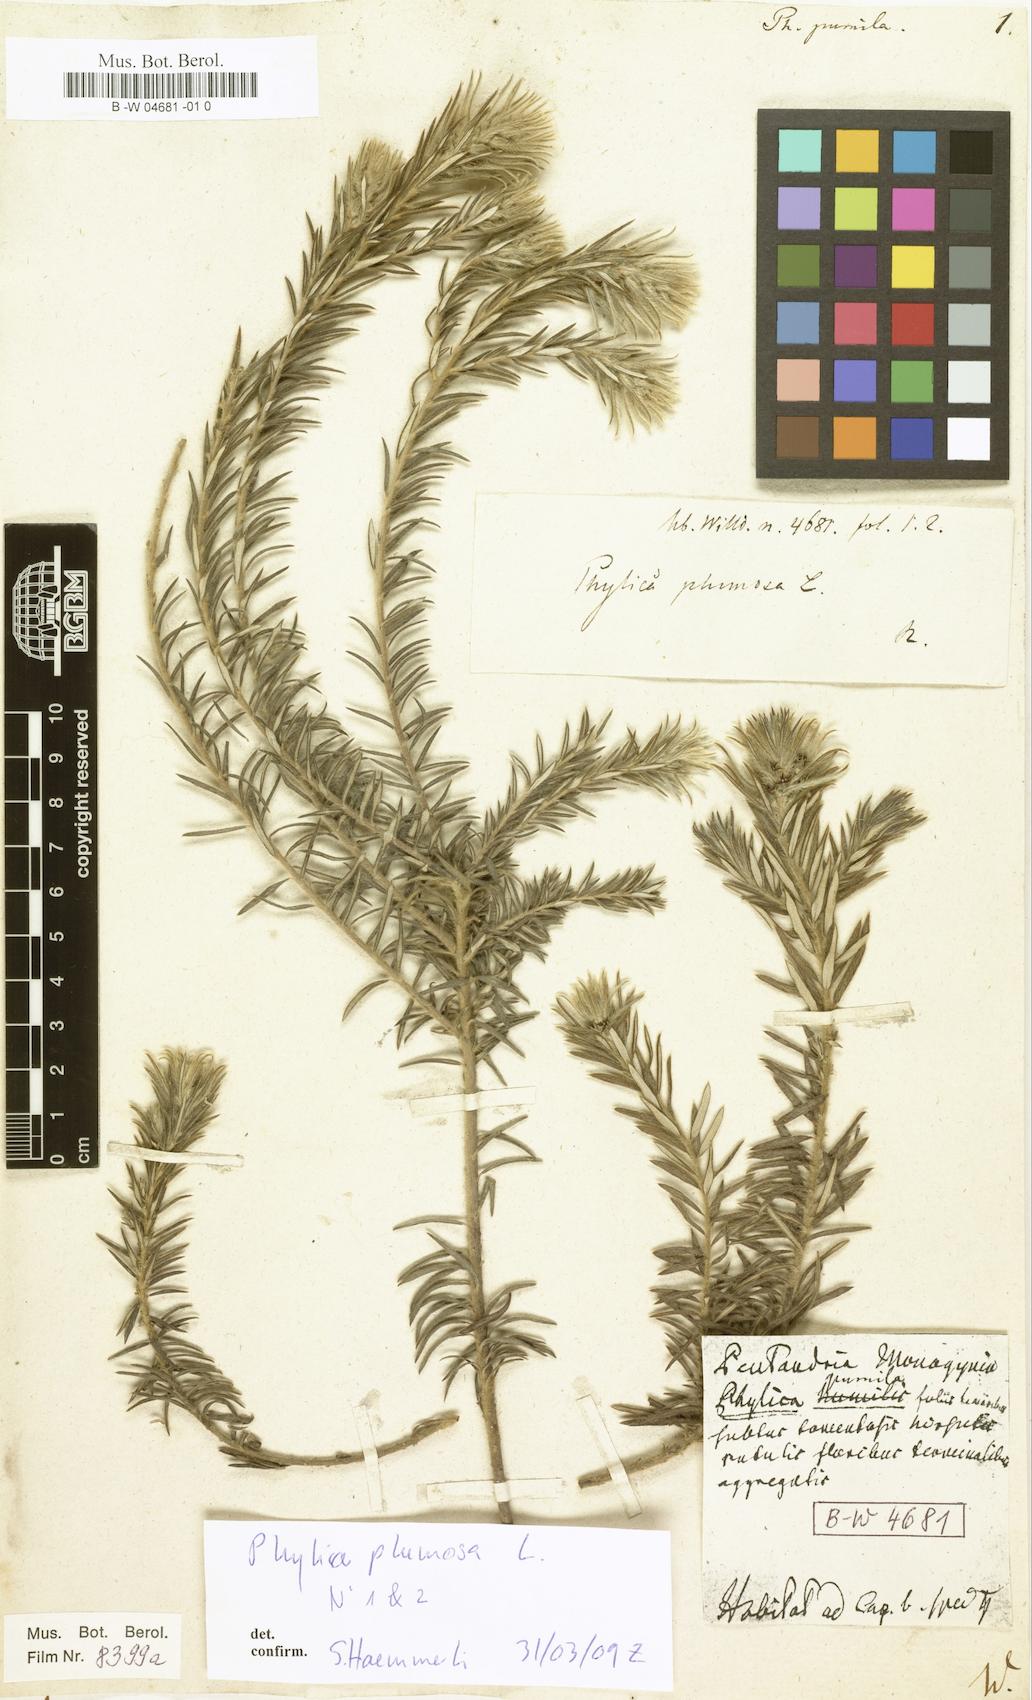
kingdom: Plantae
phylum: Tracheophyta
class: Magnoliopsida
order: Rosales
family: Rhamnaceae
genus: Phylica
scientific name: Phylica plumosa
